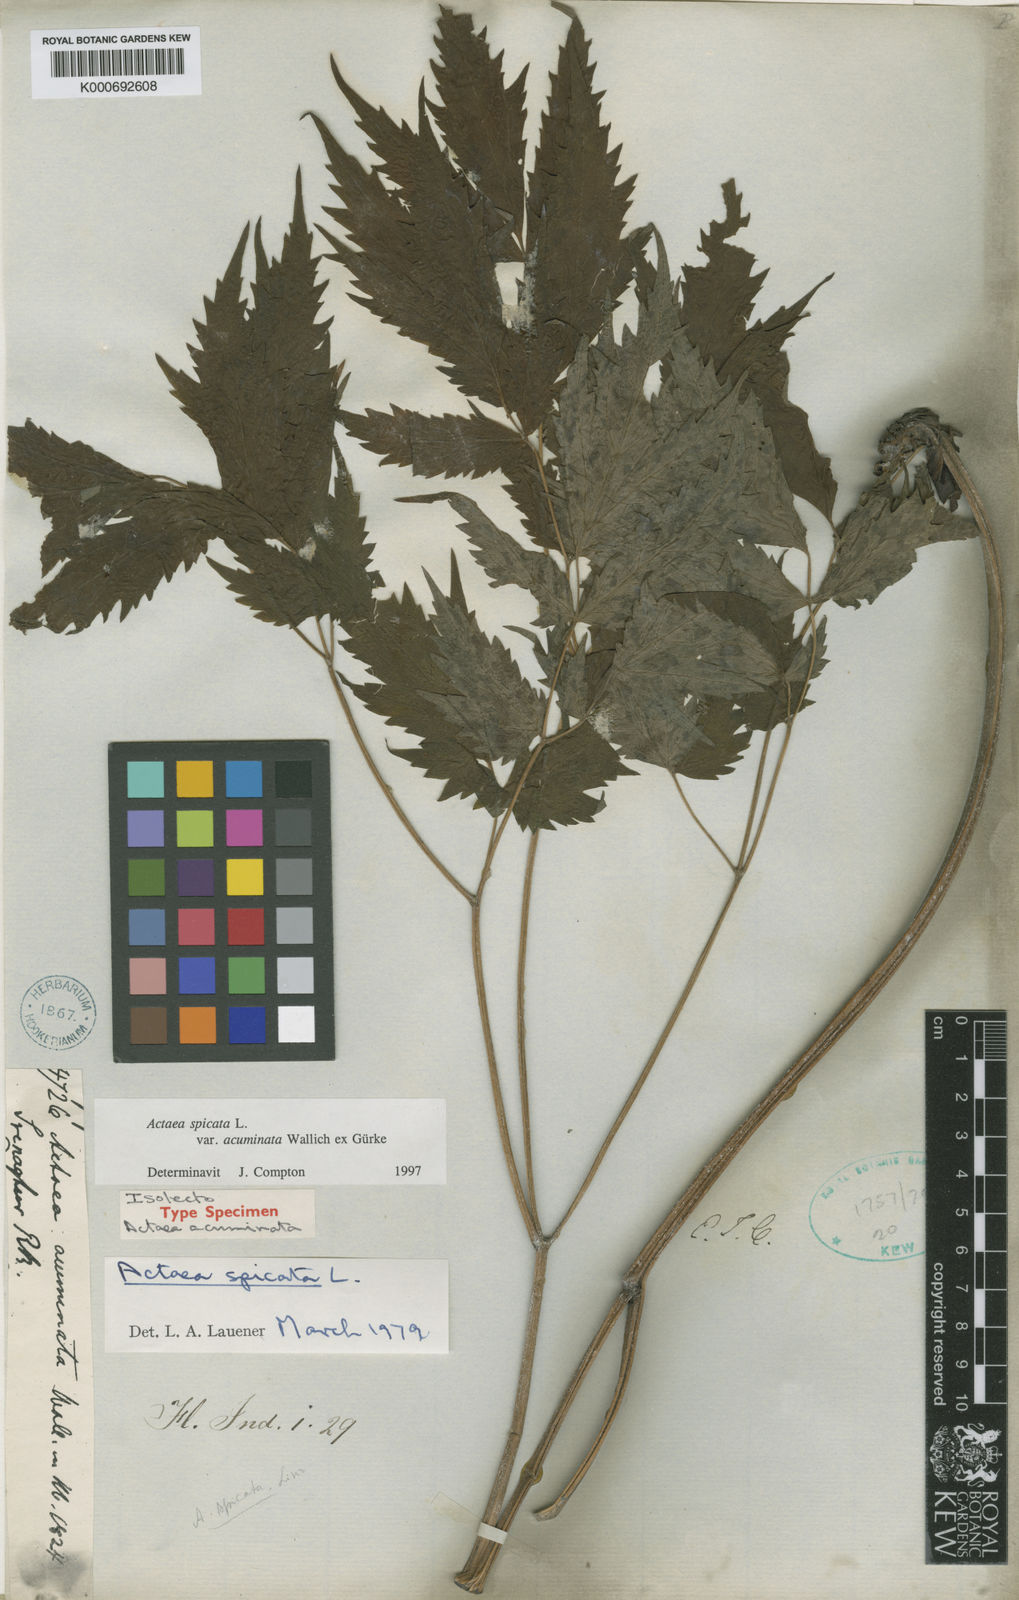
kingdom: Plantae
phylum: Tracheophyta
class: Magnoliopsida
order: Ranunculales
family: Ranunculaceae
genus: Actaea
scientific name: Actaea spicata
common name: Baneberry
